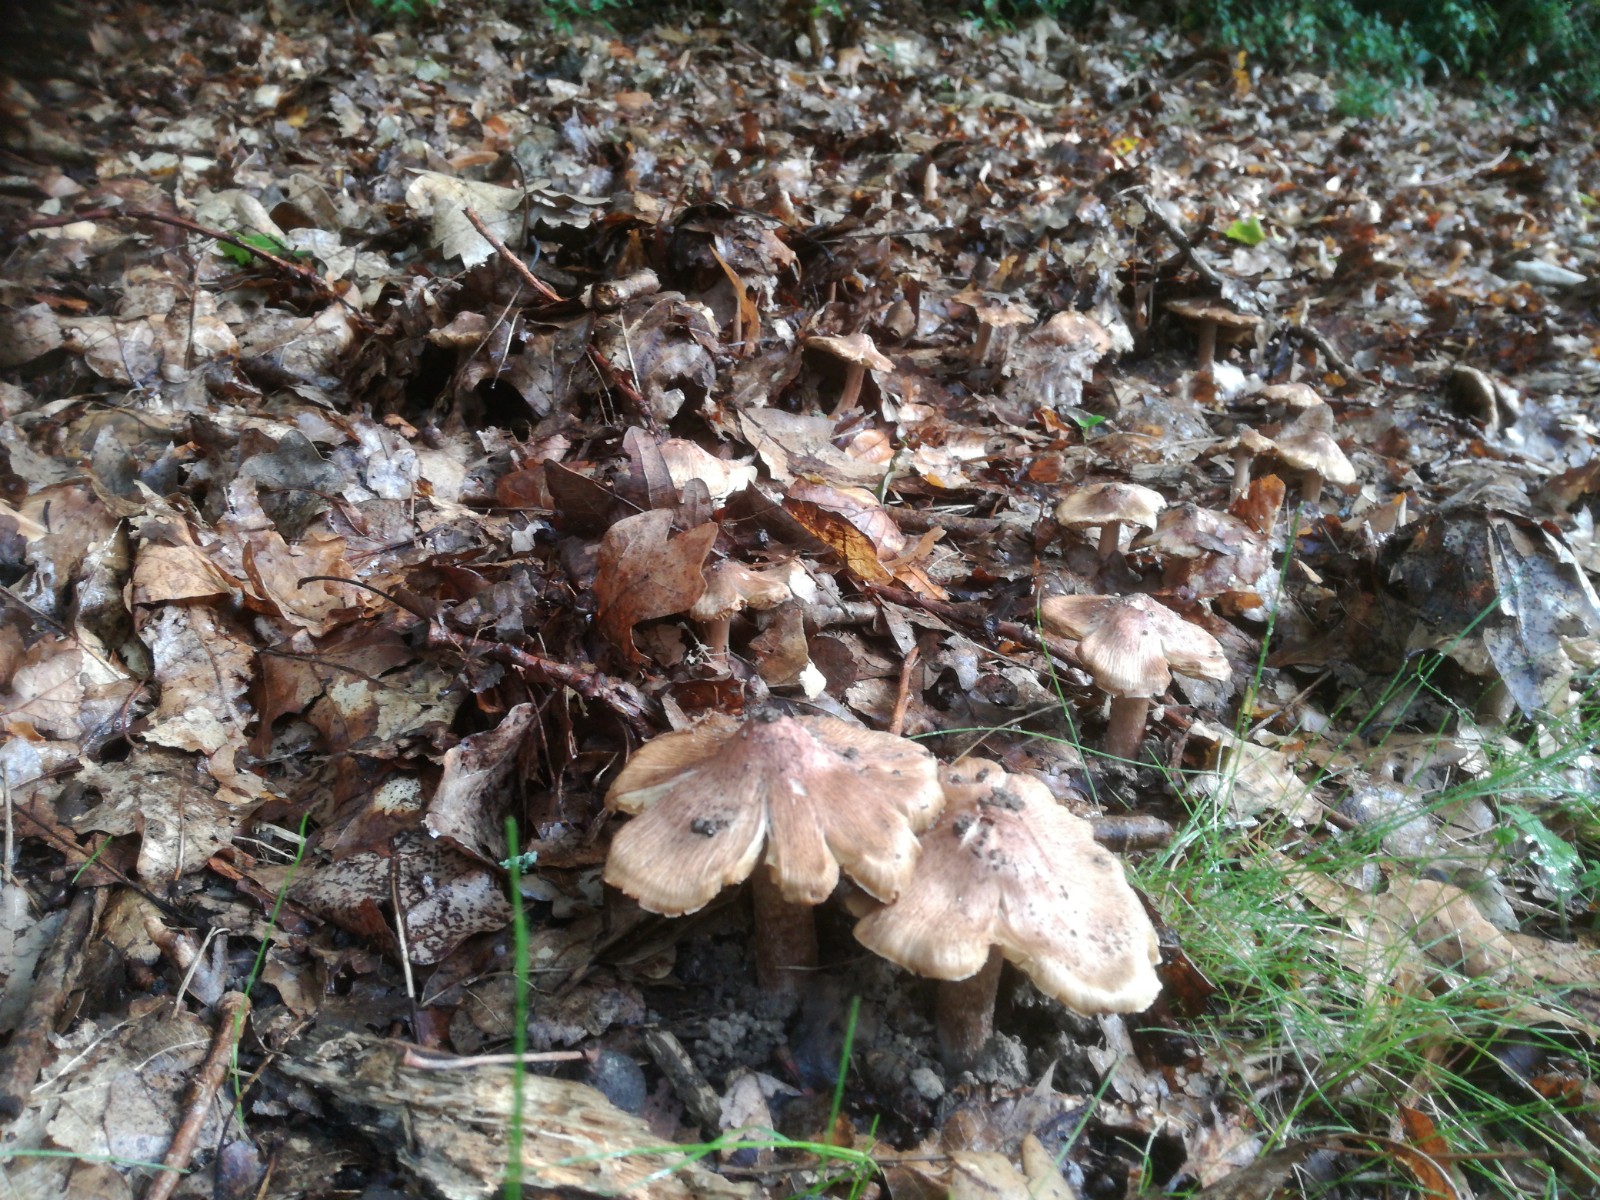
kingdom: Fungi
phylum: Basidiomycota
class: Agaricomycetes
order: Agaricales
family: Inocybaceae
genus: Inosperma
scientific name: Inosperma adaequatum
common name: vinrød trævlhat
